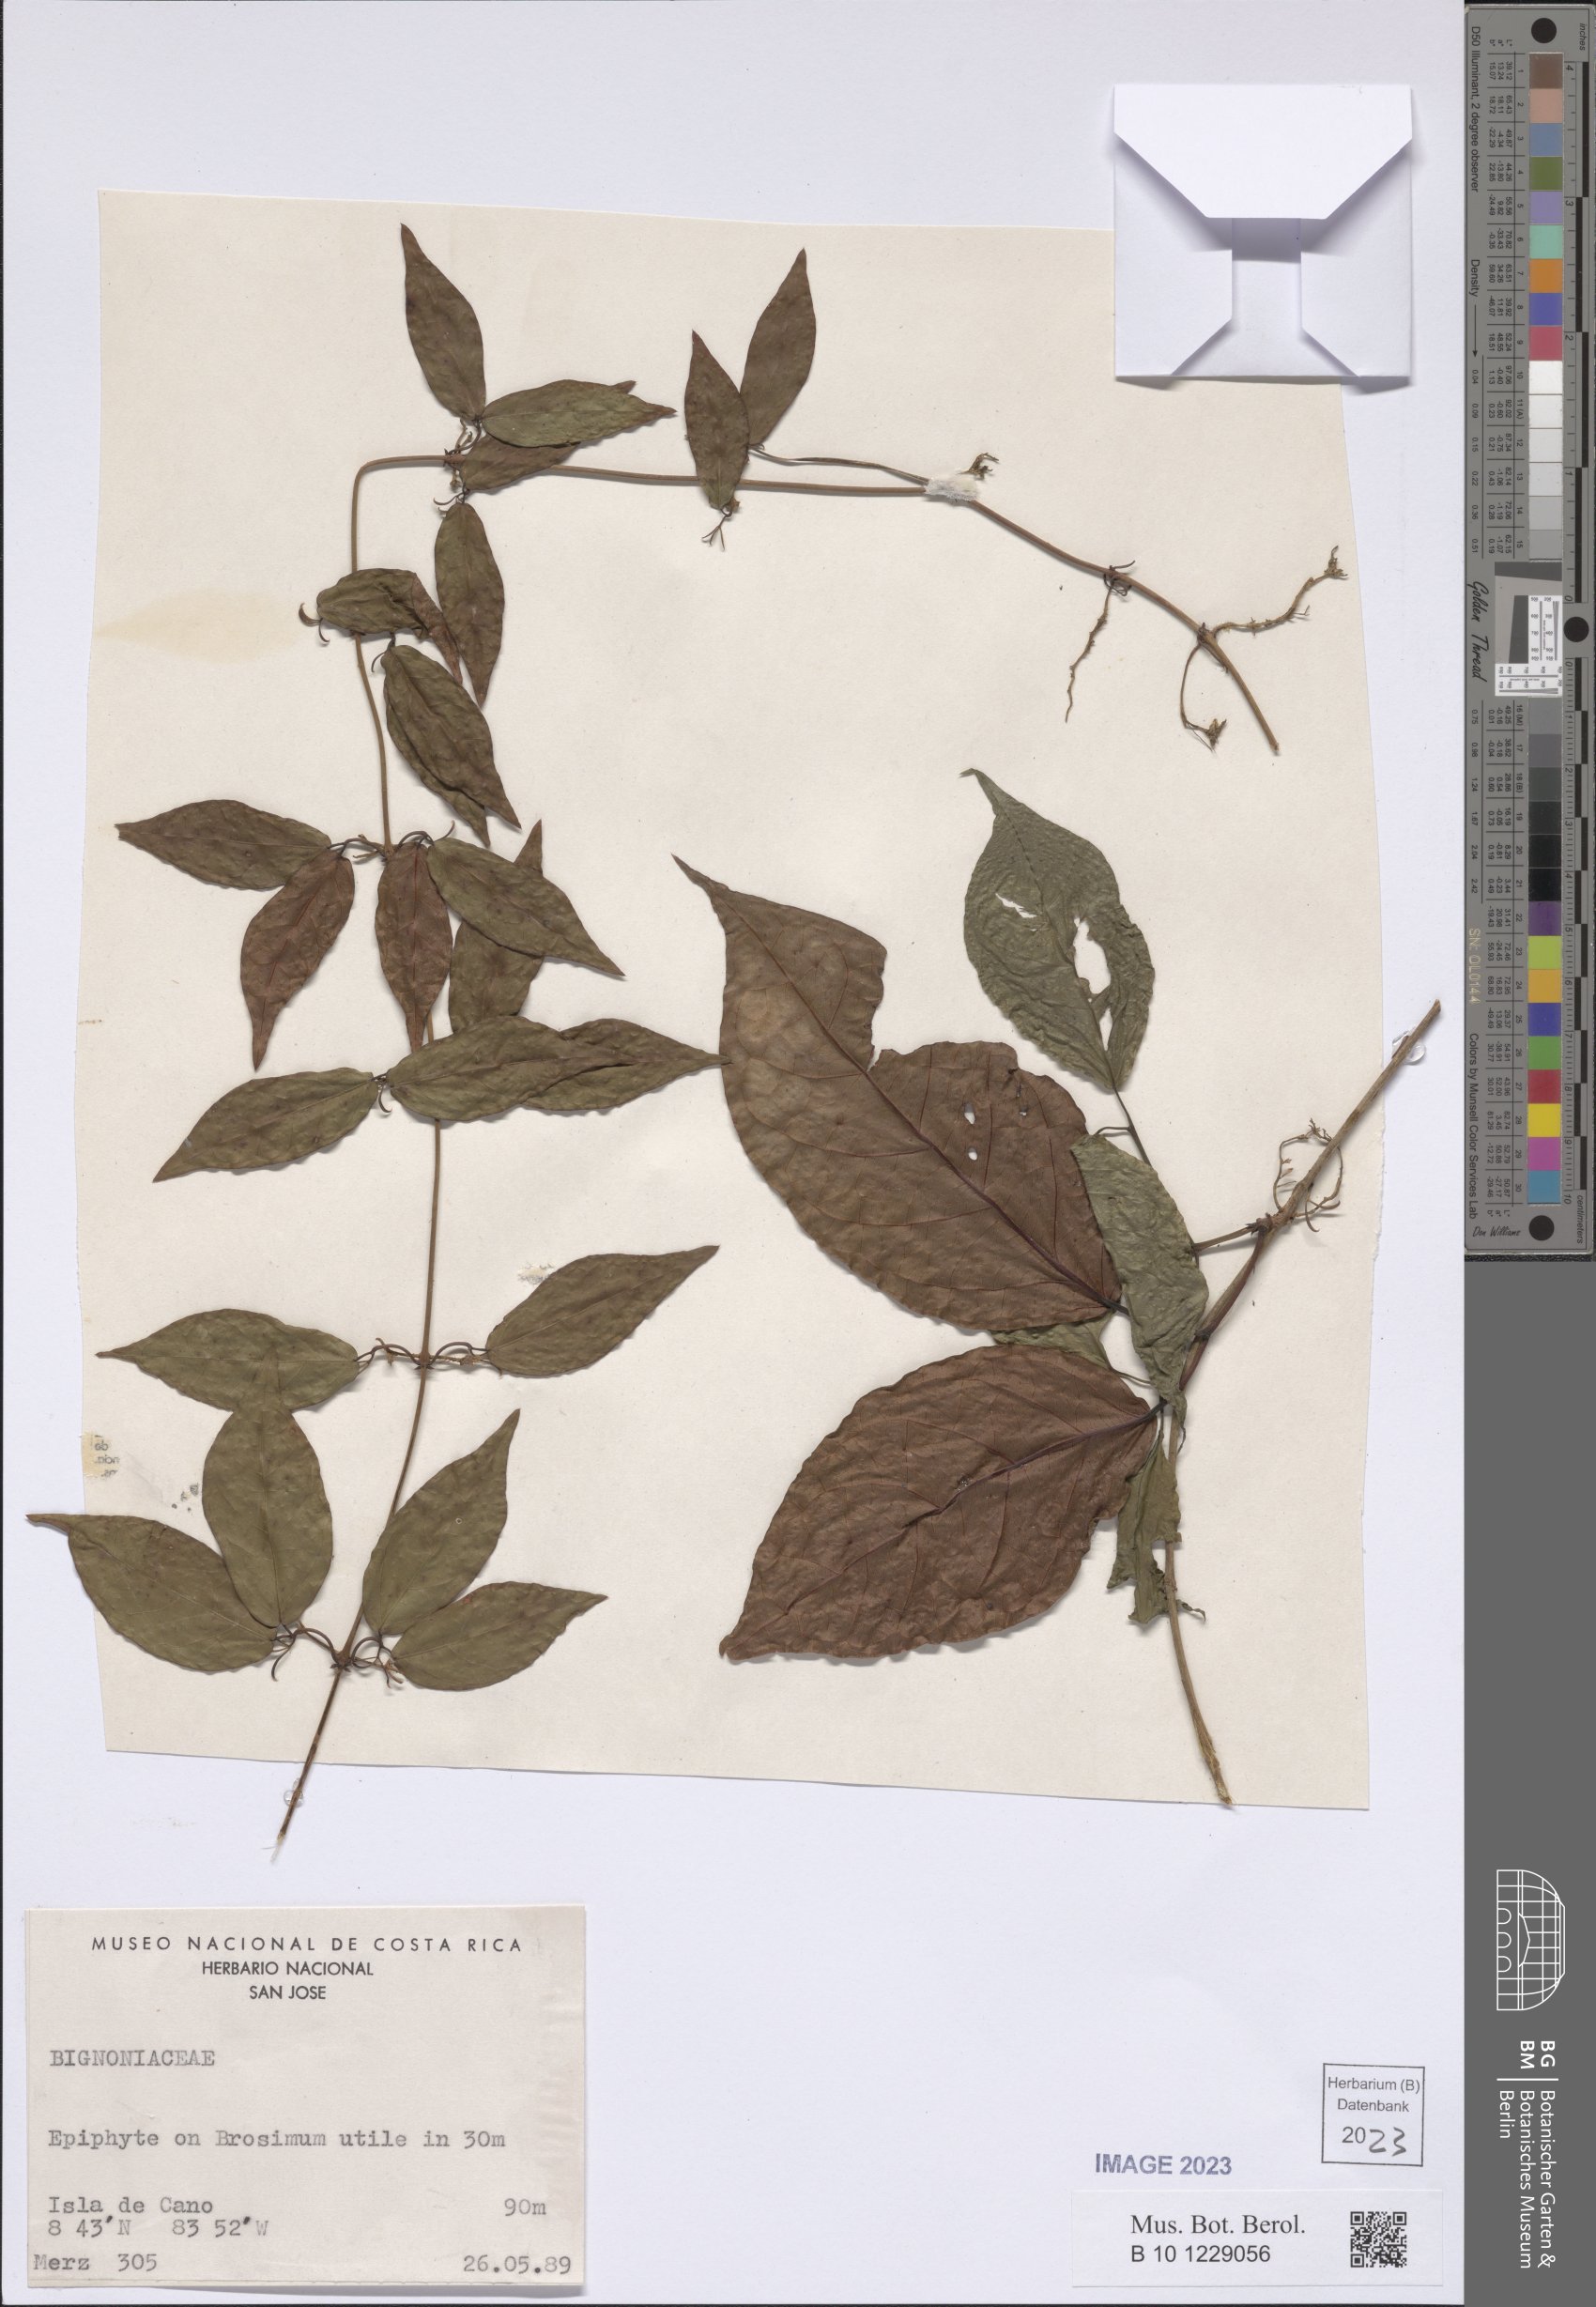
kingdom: Plantae
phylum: Tracheophyta
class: Magnoliopsida
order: Lamiales
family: Bignoniaceae
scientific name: Bignoniaceae
